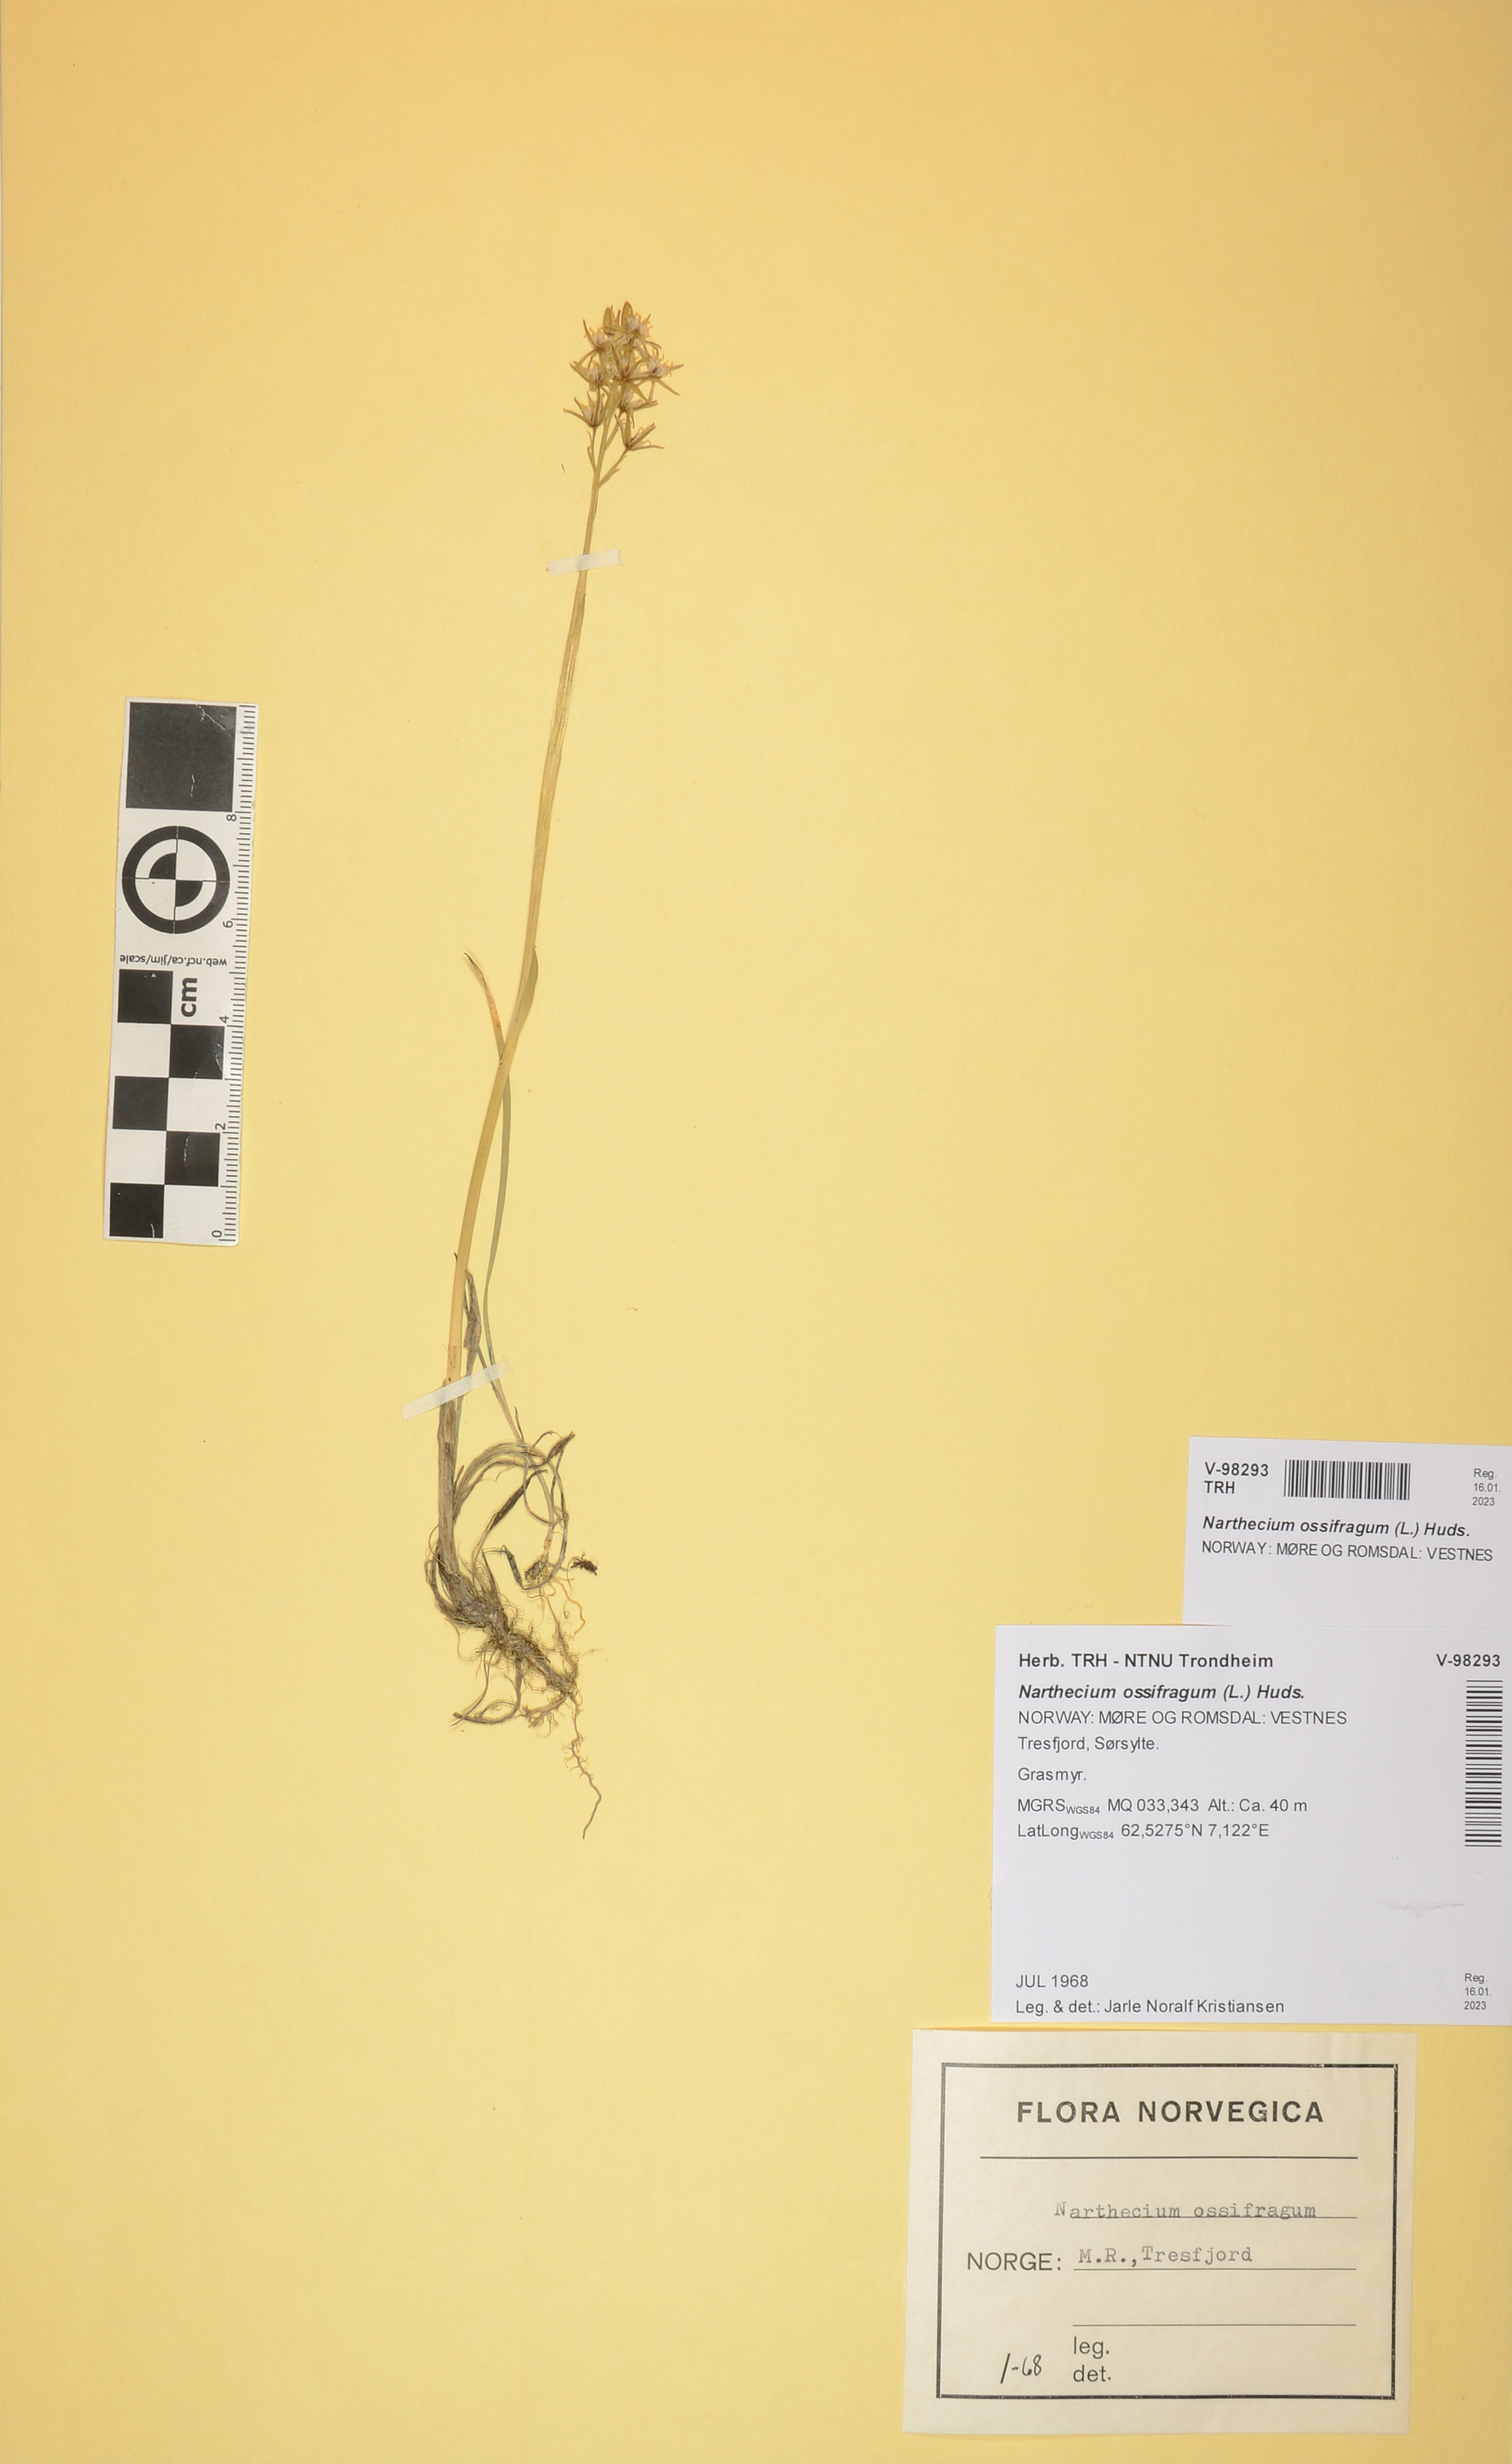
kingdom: Plantae
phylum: Tracheophyta
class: Liliopsida
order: Dioscoreales
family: Nartheciaceae
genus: Narthecium
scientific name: Narthecium ossifragum
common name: Bog asphodel
